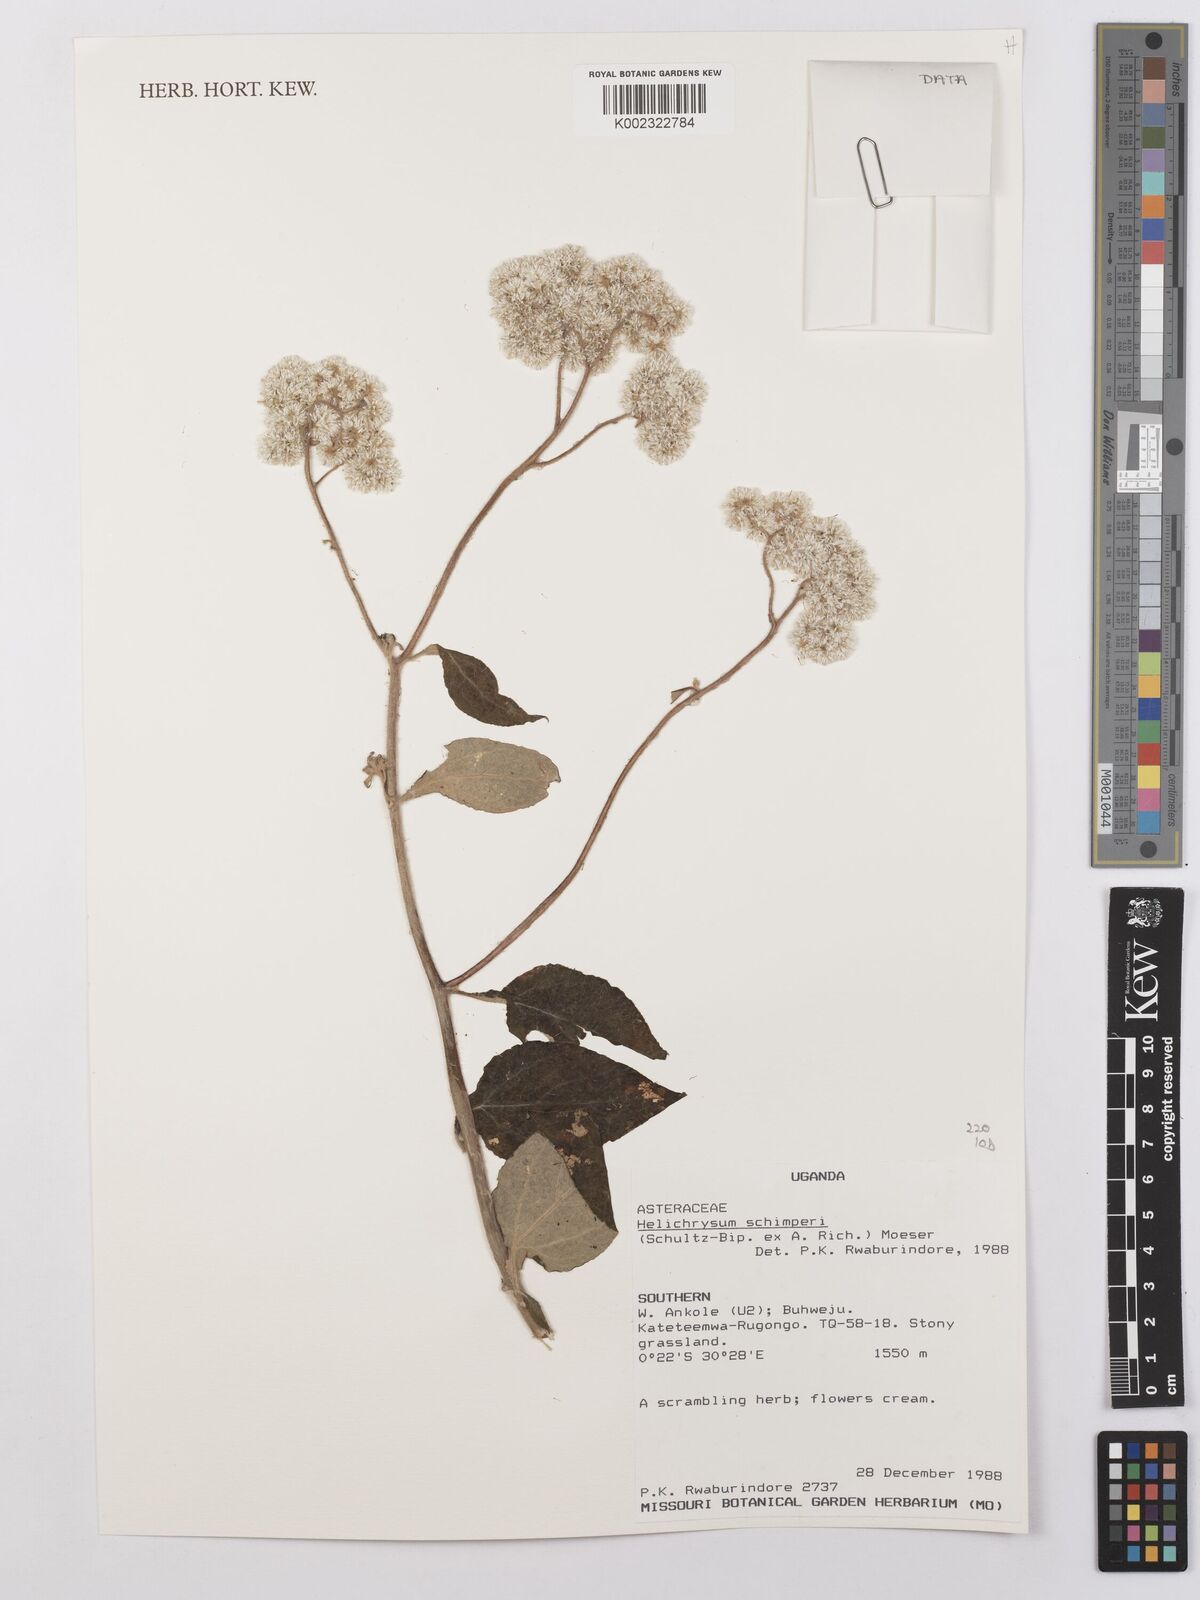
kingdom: Plantae
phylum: Tracheophyta
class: Magnoliopsida
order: Asterales
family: Asteraceae
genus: Helichrysum
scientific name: Helichrysum schimperi
